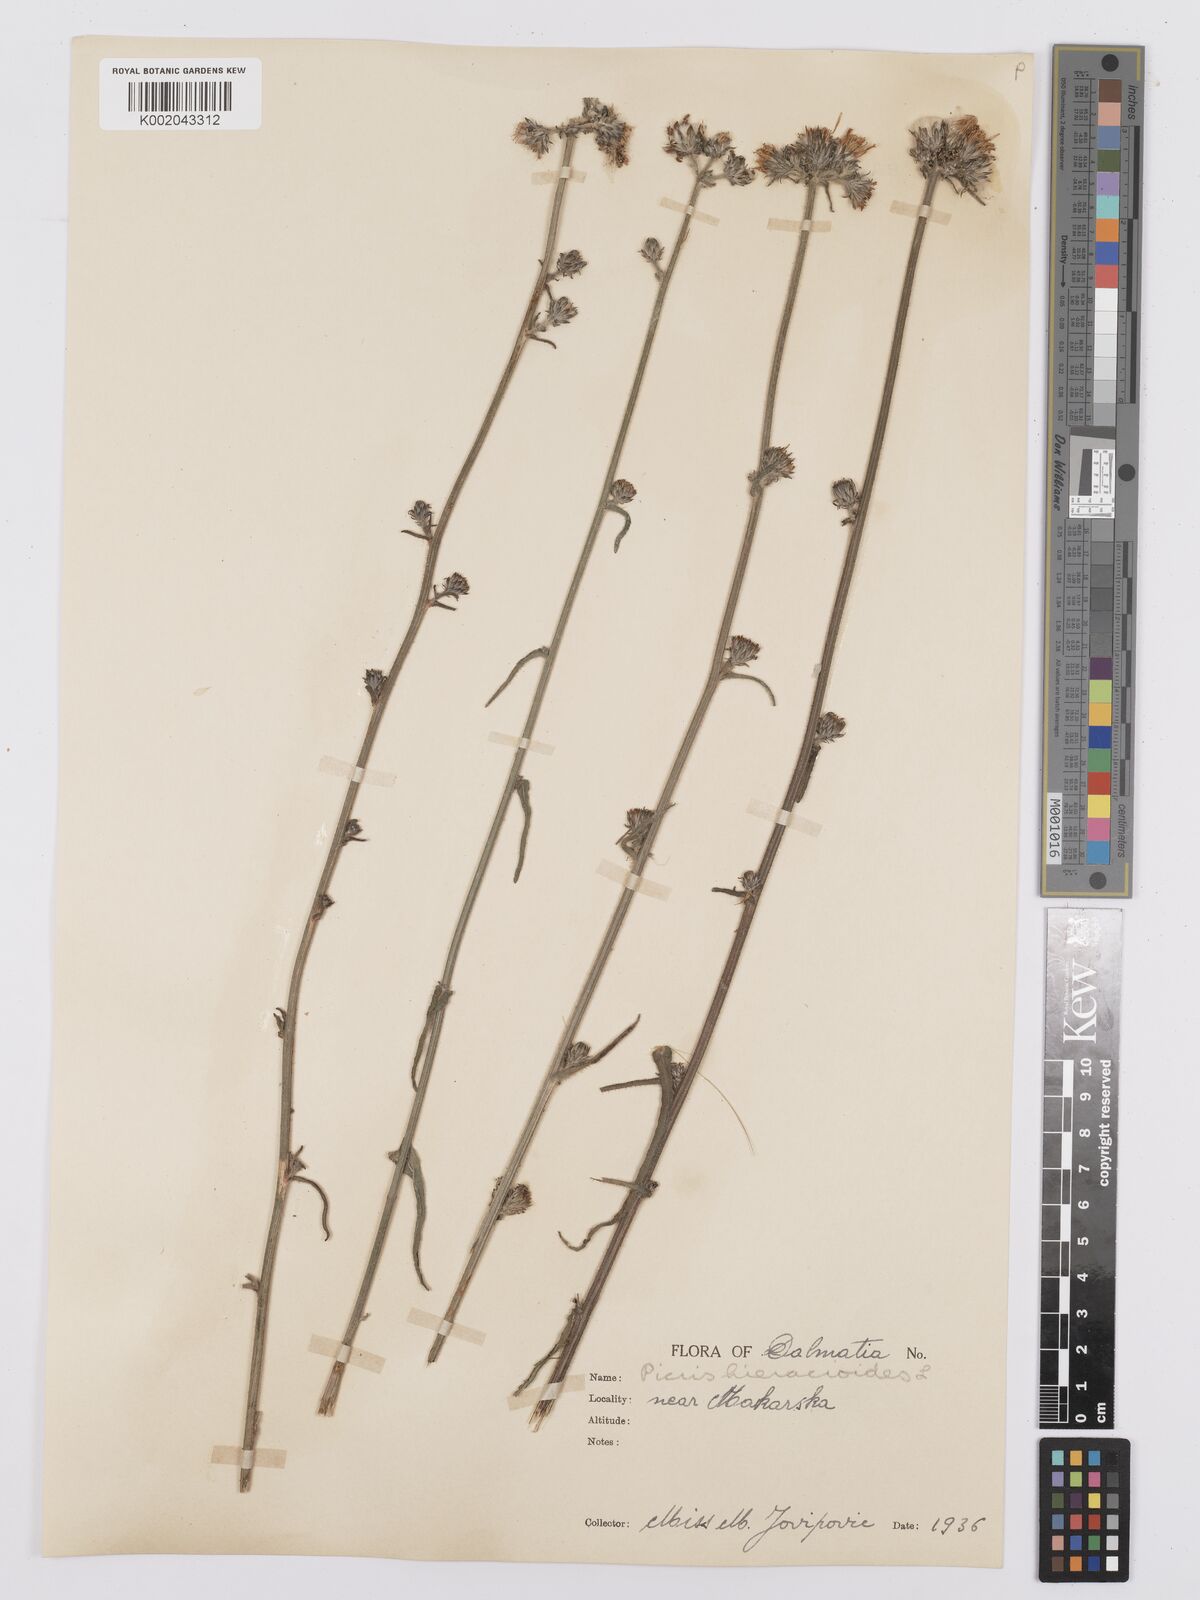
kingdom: Plantae
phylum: Tracheophyta
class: Magnoliopsida
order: Asterales
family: Asteraceae
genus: Picris
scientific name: Picris hieracioides
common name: Hawkweed oxtongue
